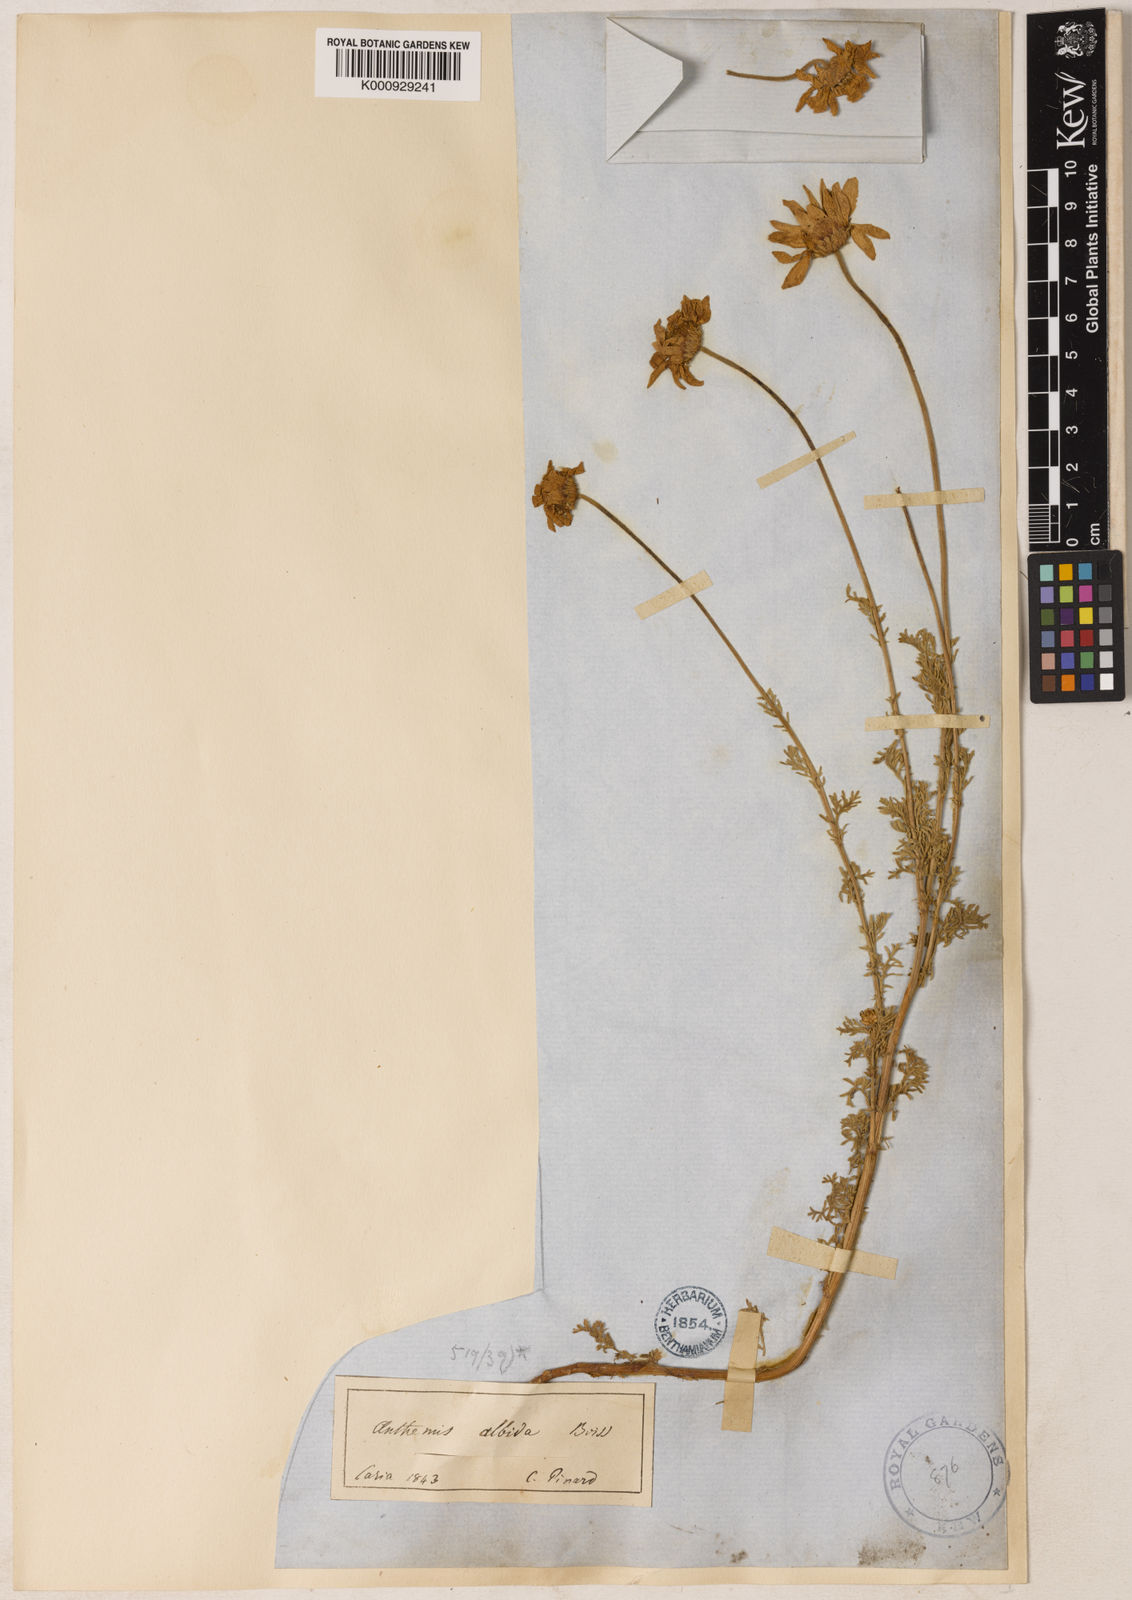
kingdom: Plantae
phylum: Tracheophyta
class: Magnoliopsida
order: Asterales
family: Asteraceae
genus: Anthemis
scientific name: Anthemis cretica
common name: Mountain dog-daisy
